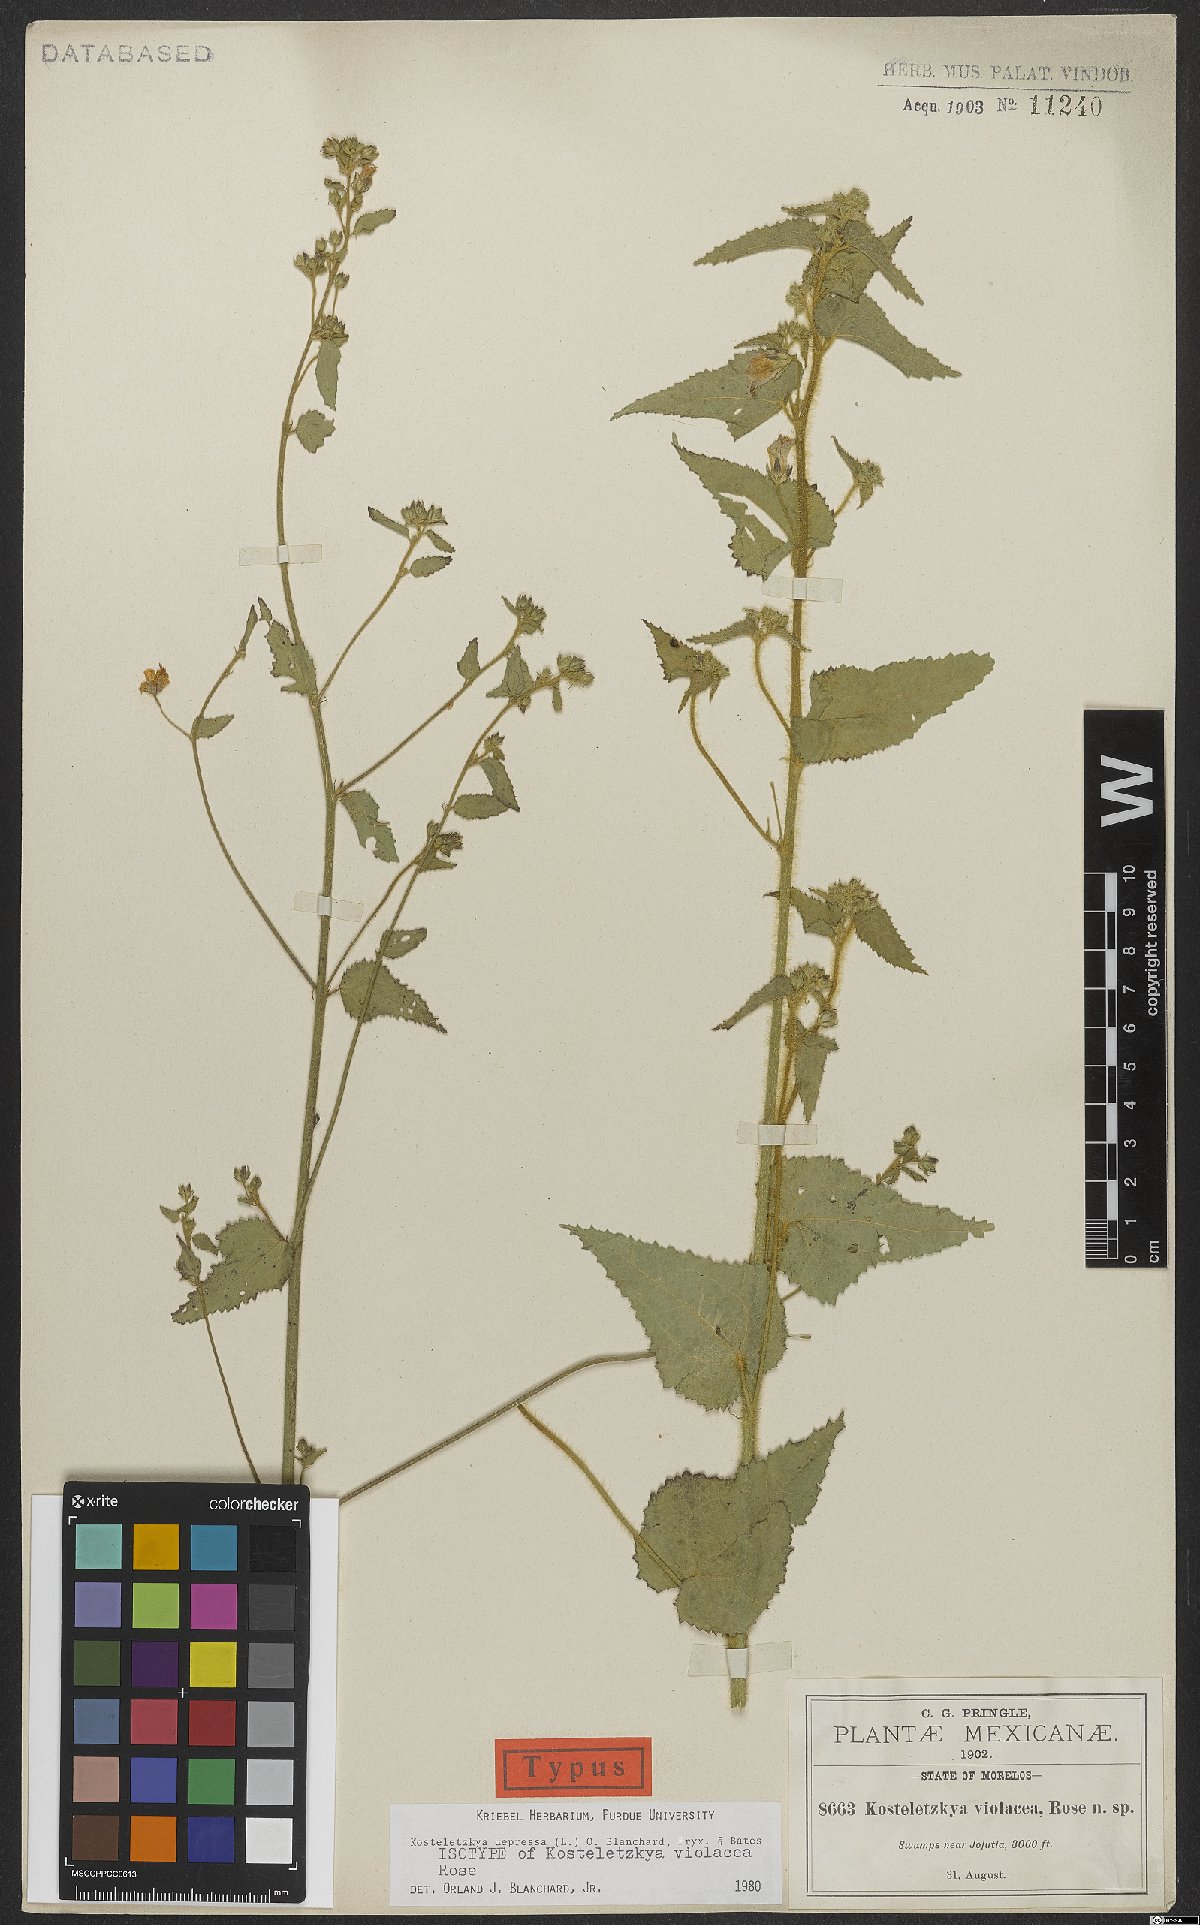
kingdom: Plantae
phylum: Tracheophyta
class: Magnoliopsida
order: Malvales
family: Malvaceae
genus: Kosteletzkya
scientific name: Kosteletzkya depressa
